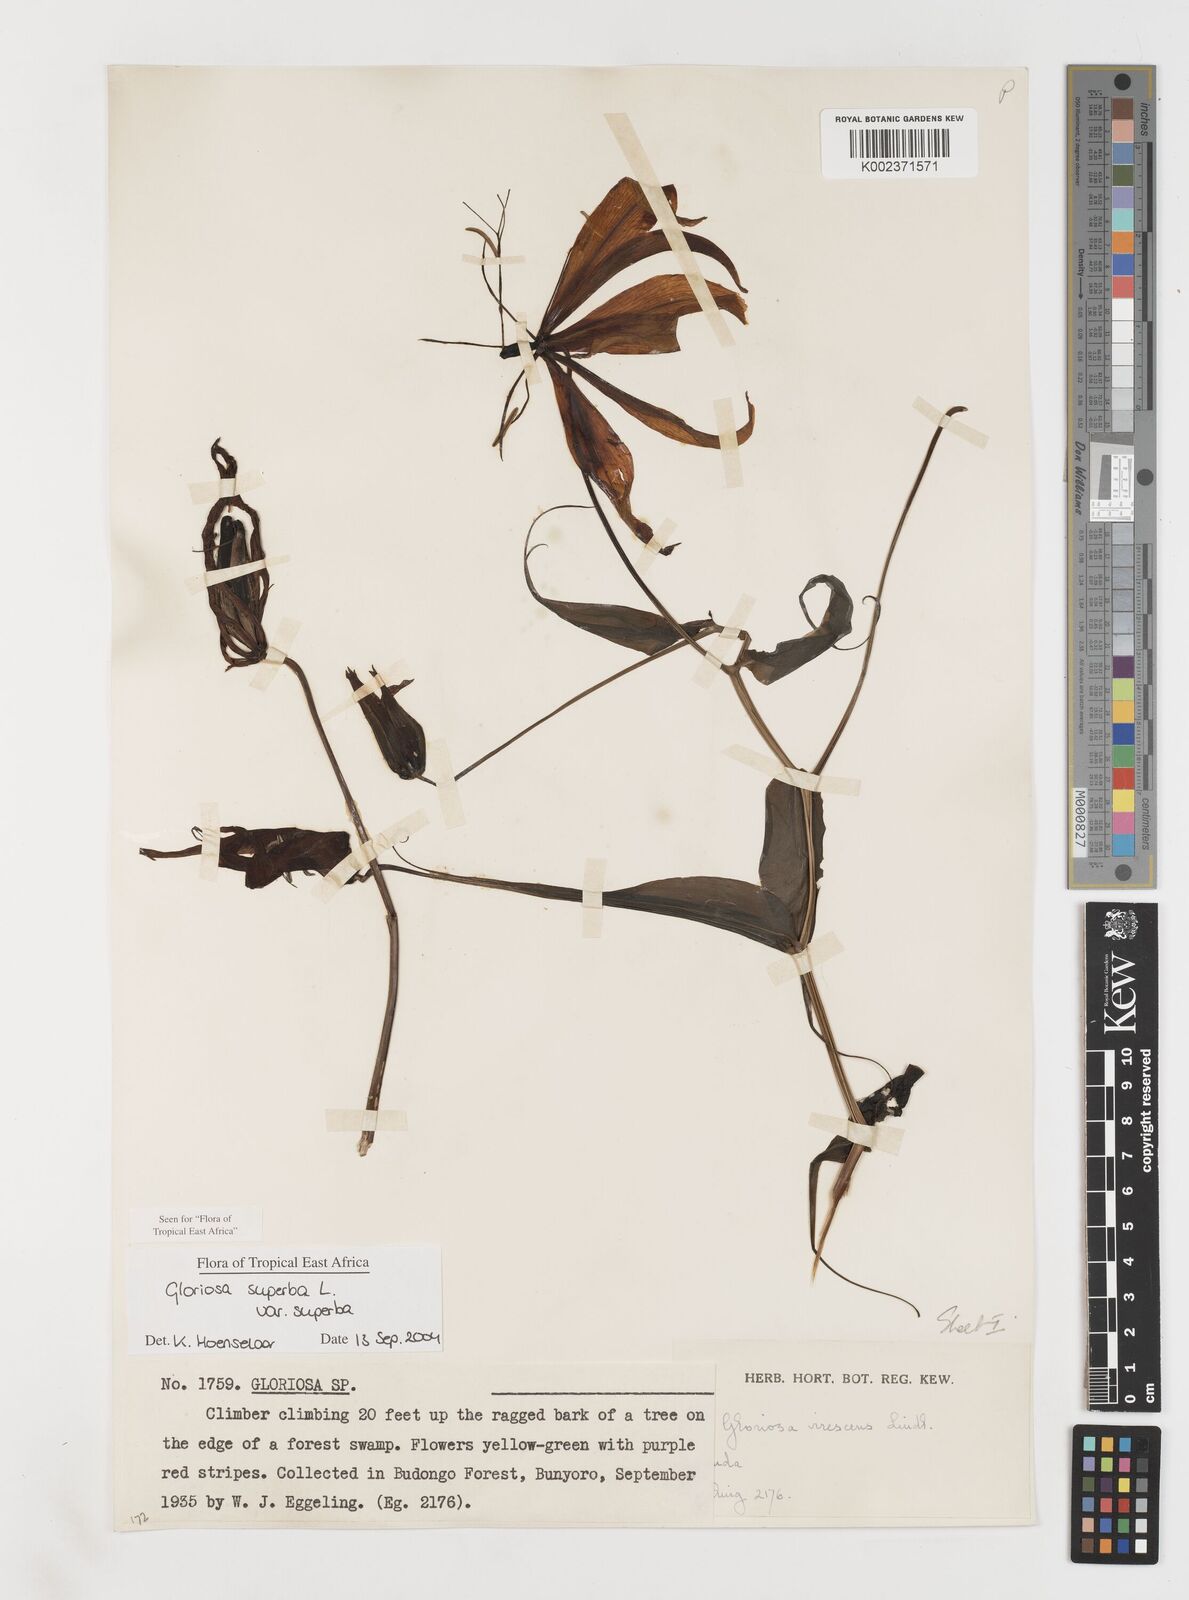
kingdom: Plantae
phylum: Tracheophyta
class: Liliopsida
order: Liliales
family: Colchicaceae
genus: Gloriosa
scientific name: Gloriosa simplex
